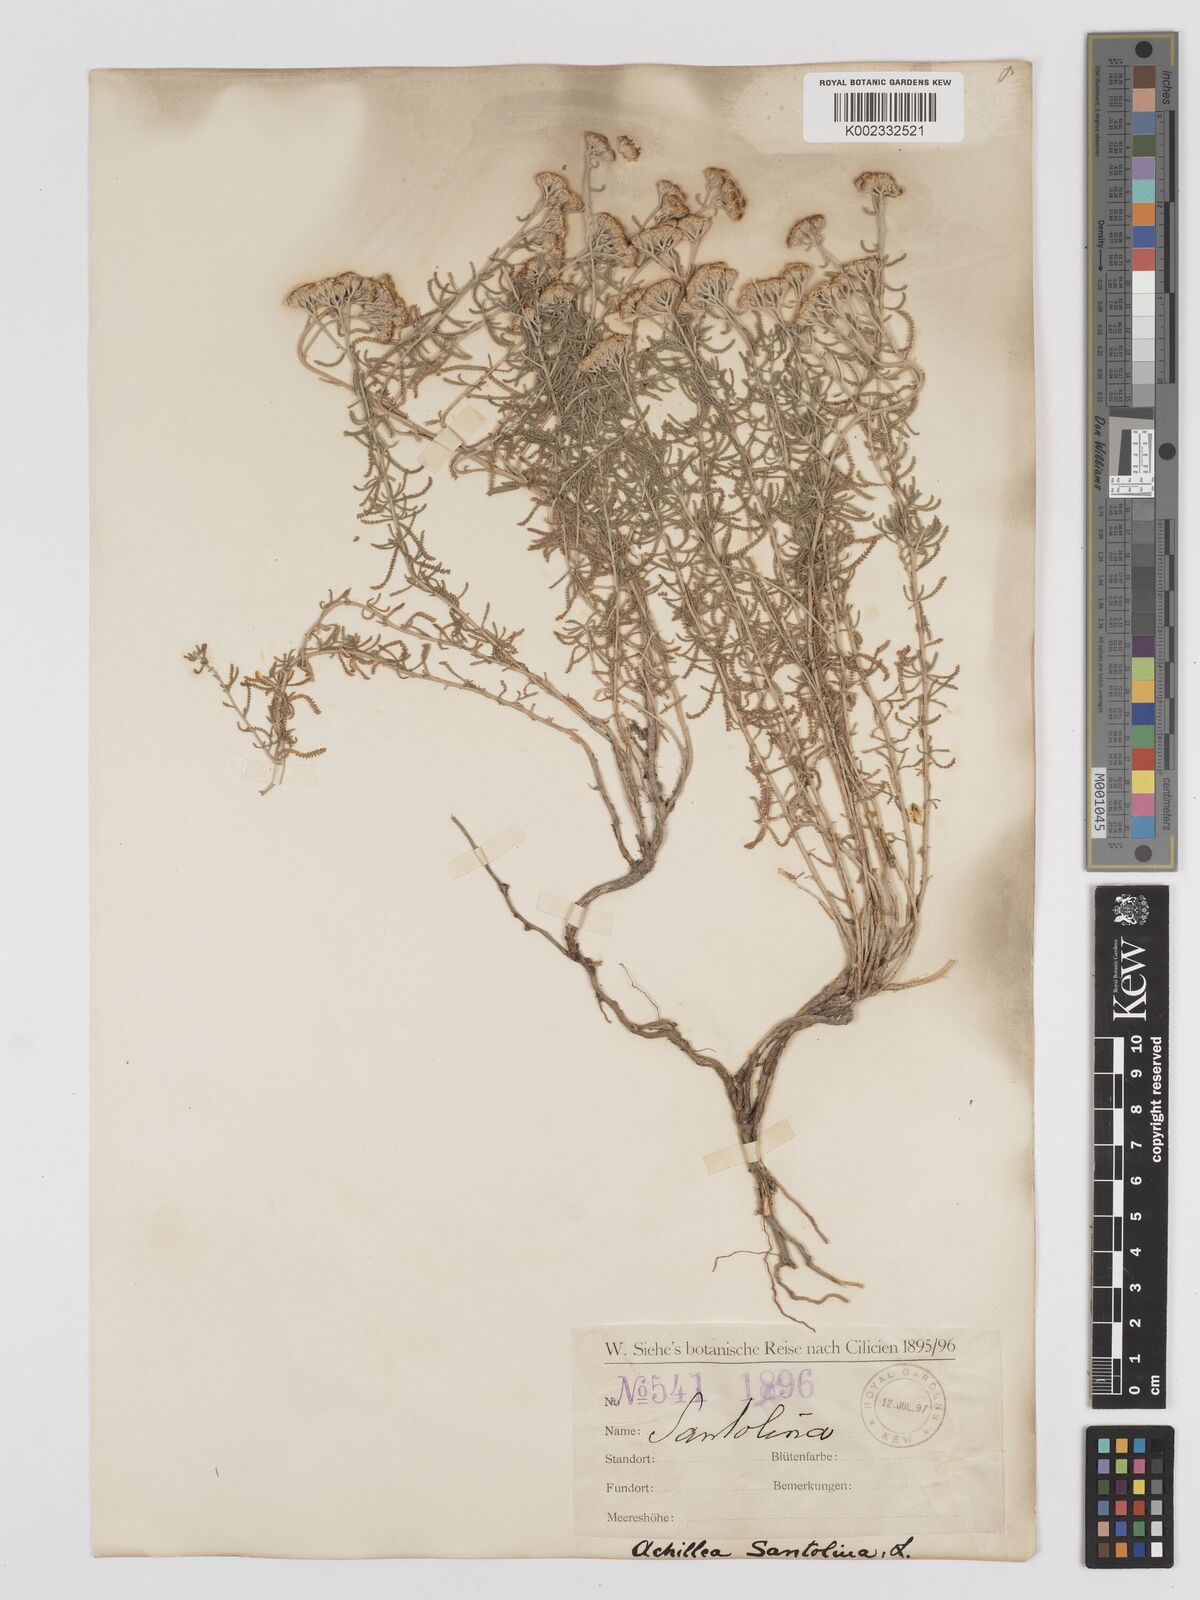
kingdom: Plantae
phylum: Tracheophyta
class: Magnoliopsida
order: Asterales
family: Asteraceae
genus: Achillea
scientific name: Achillea tenuifolia
